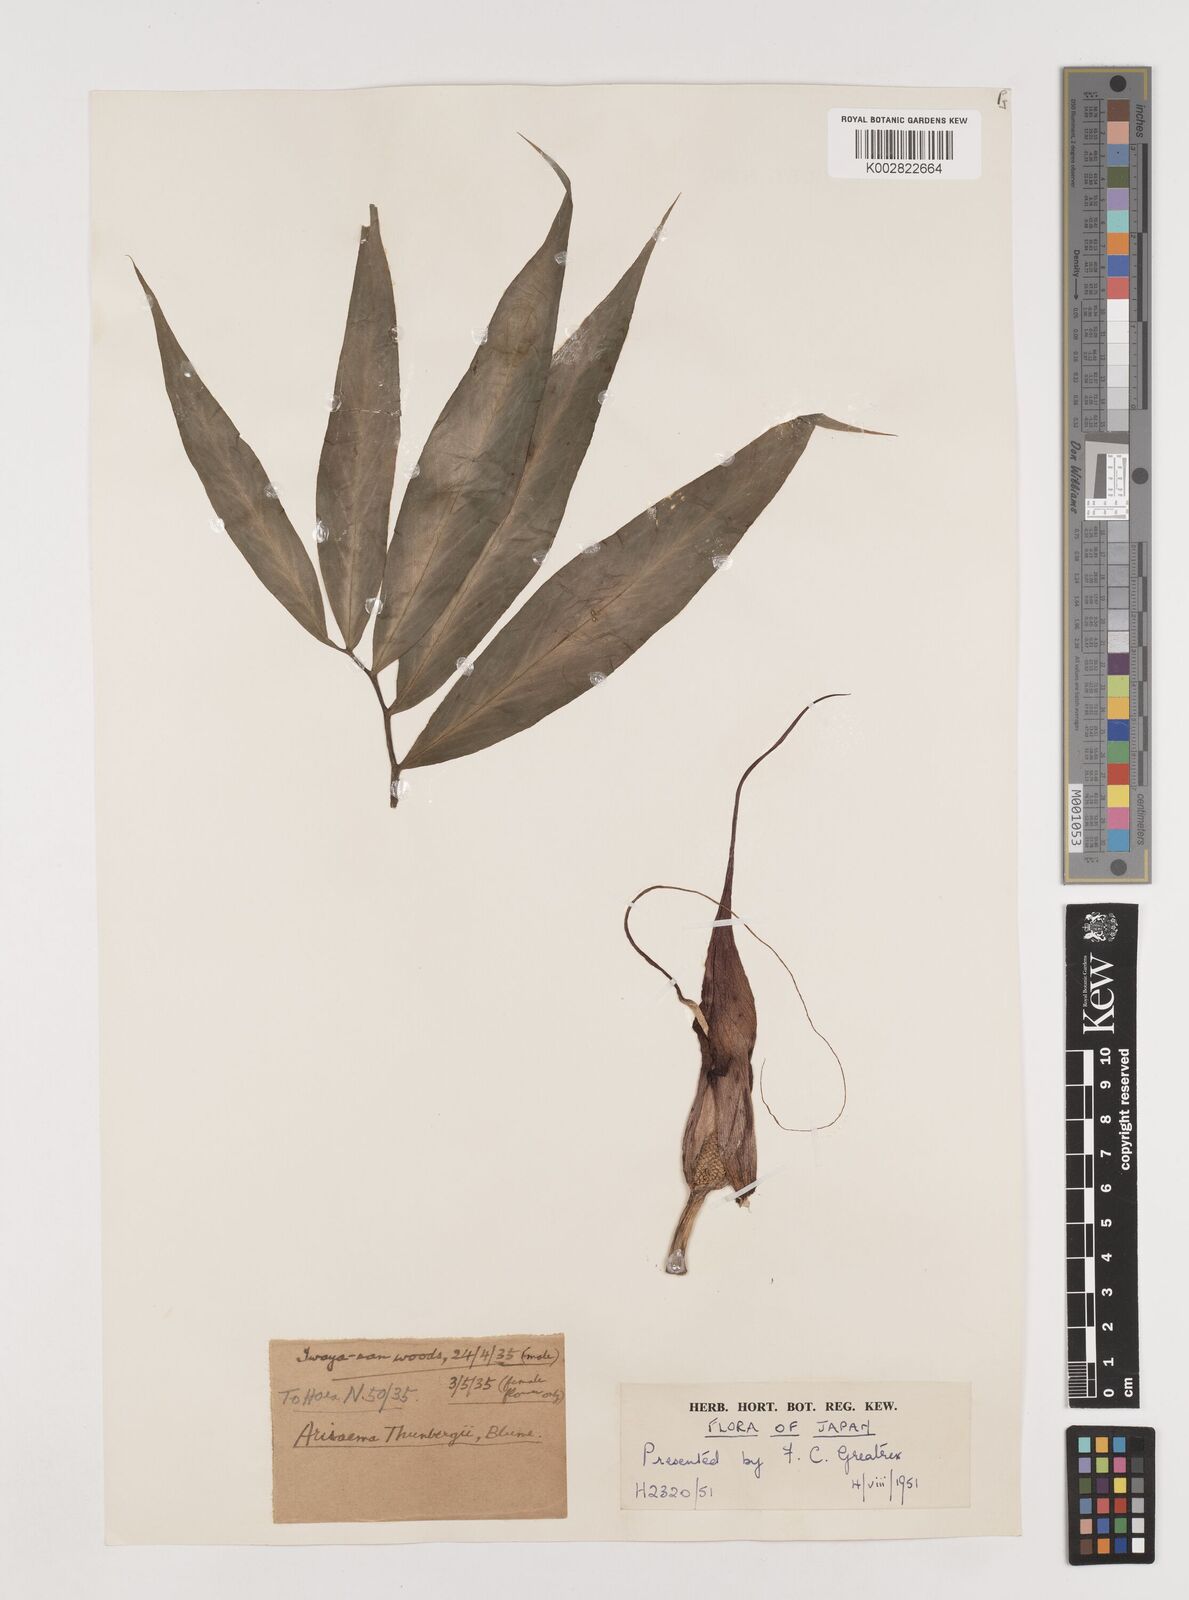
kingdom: Plantae
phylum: Tracheophyta
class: Liliopsida
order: Alismatales
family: Araceae
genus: Arisaema
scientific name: Arisaema thunbergii
